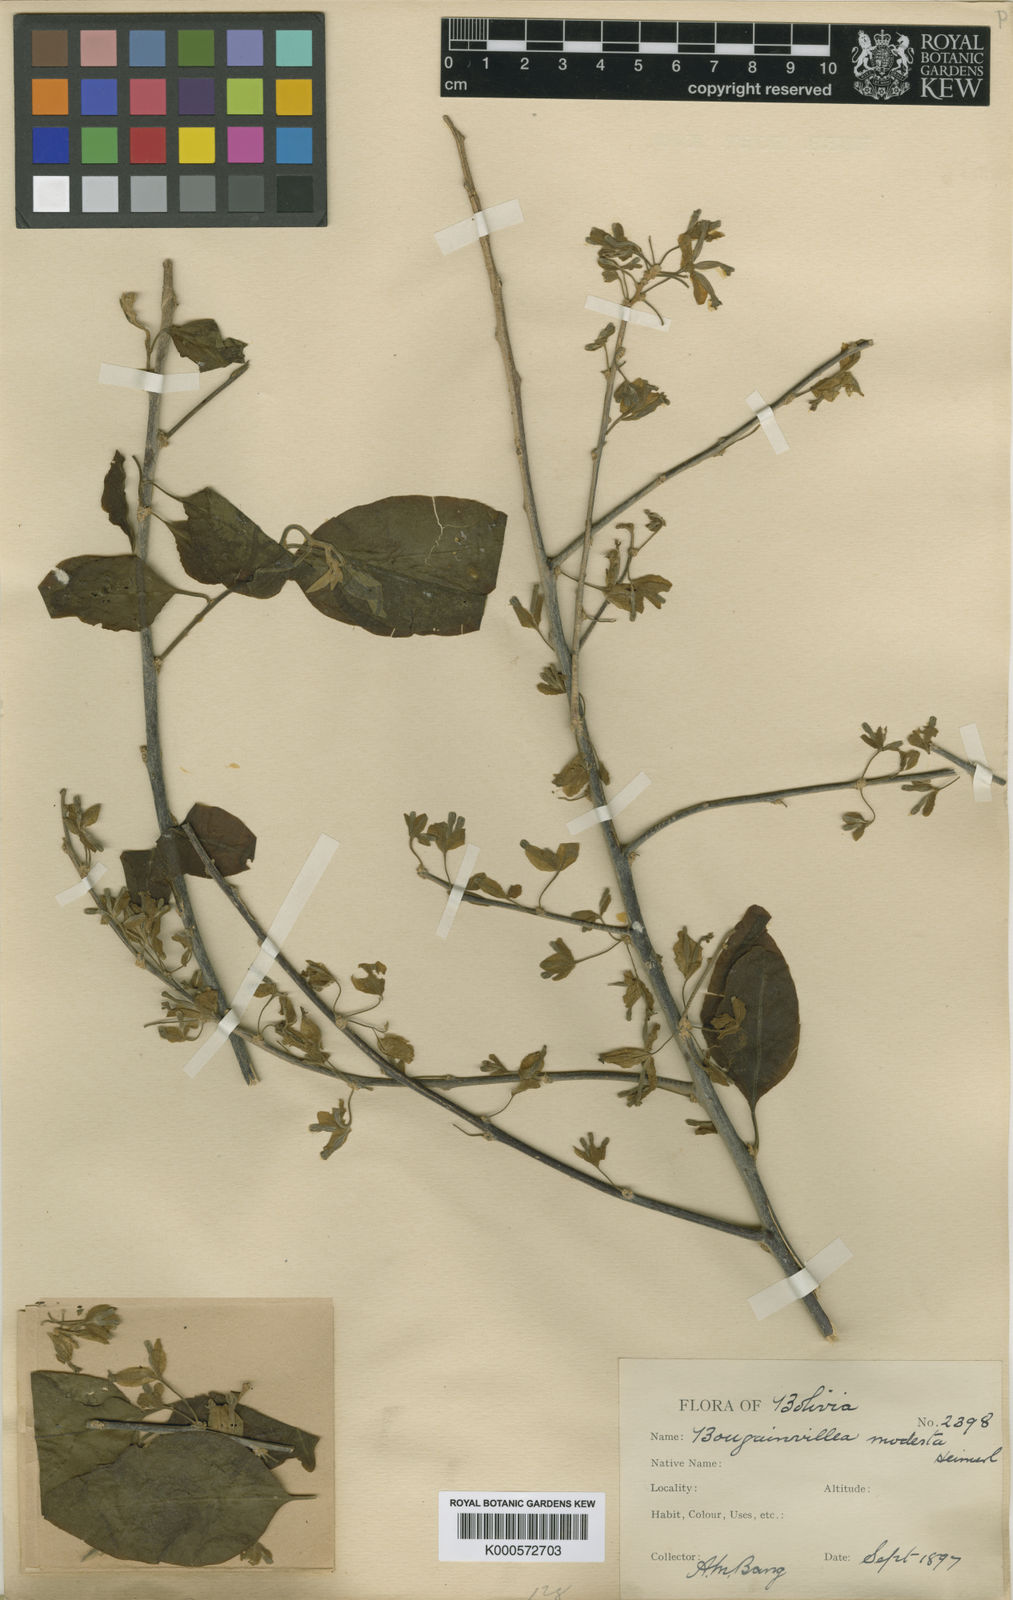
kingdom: Plantae
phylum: Tracheophyta
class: Magnoliopsida
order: Caryophyllales
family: Nyctaginaceae
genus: Bougainvillea
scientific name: Bougainvillea modesta
